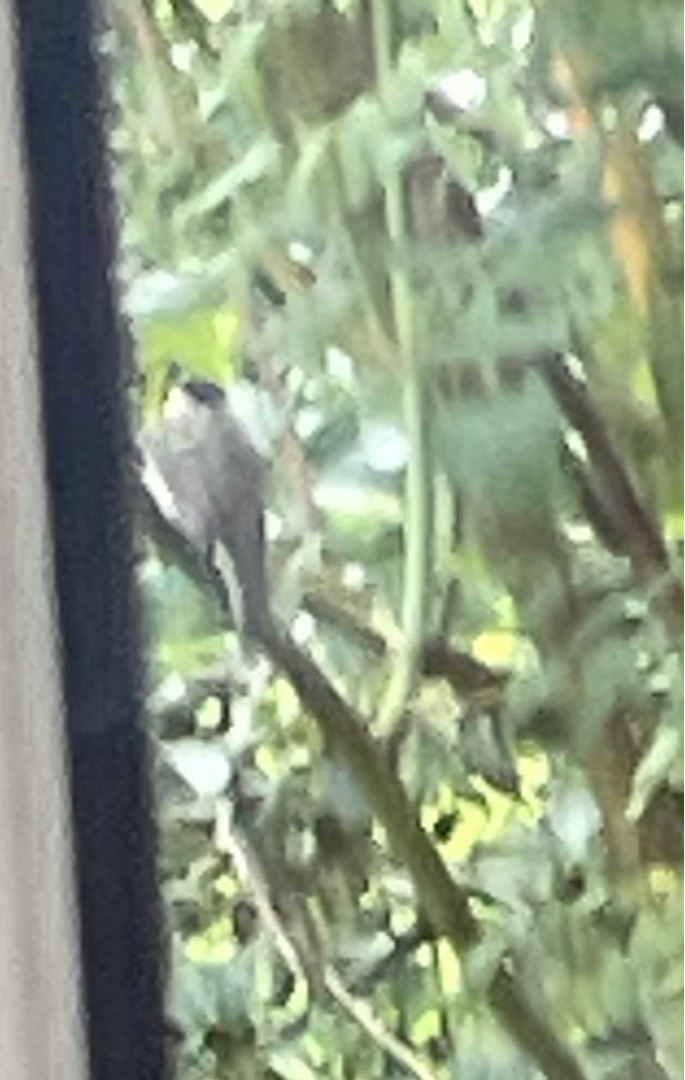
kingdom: Animalia
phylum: Chordata
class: Aves
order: Passeriformes
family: Paridae
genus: Poecile
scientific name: Poecile palustris
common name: Sumpmejse
